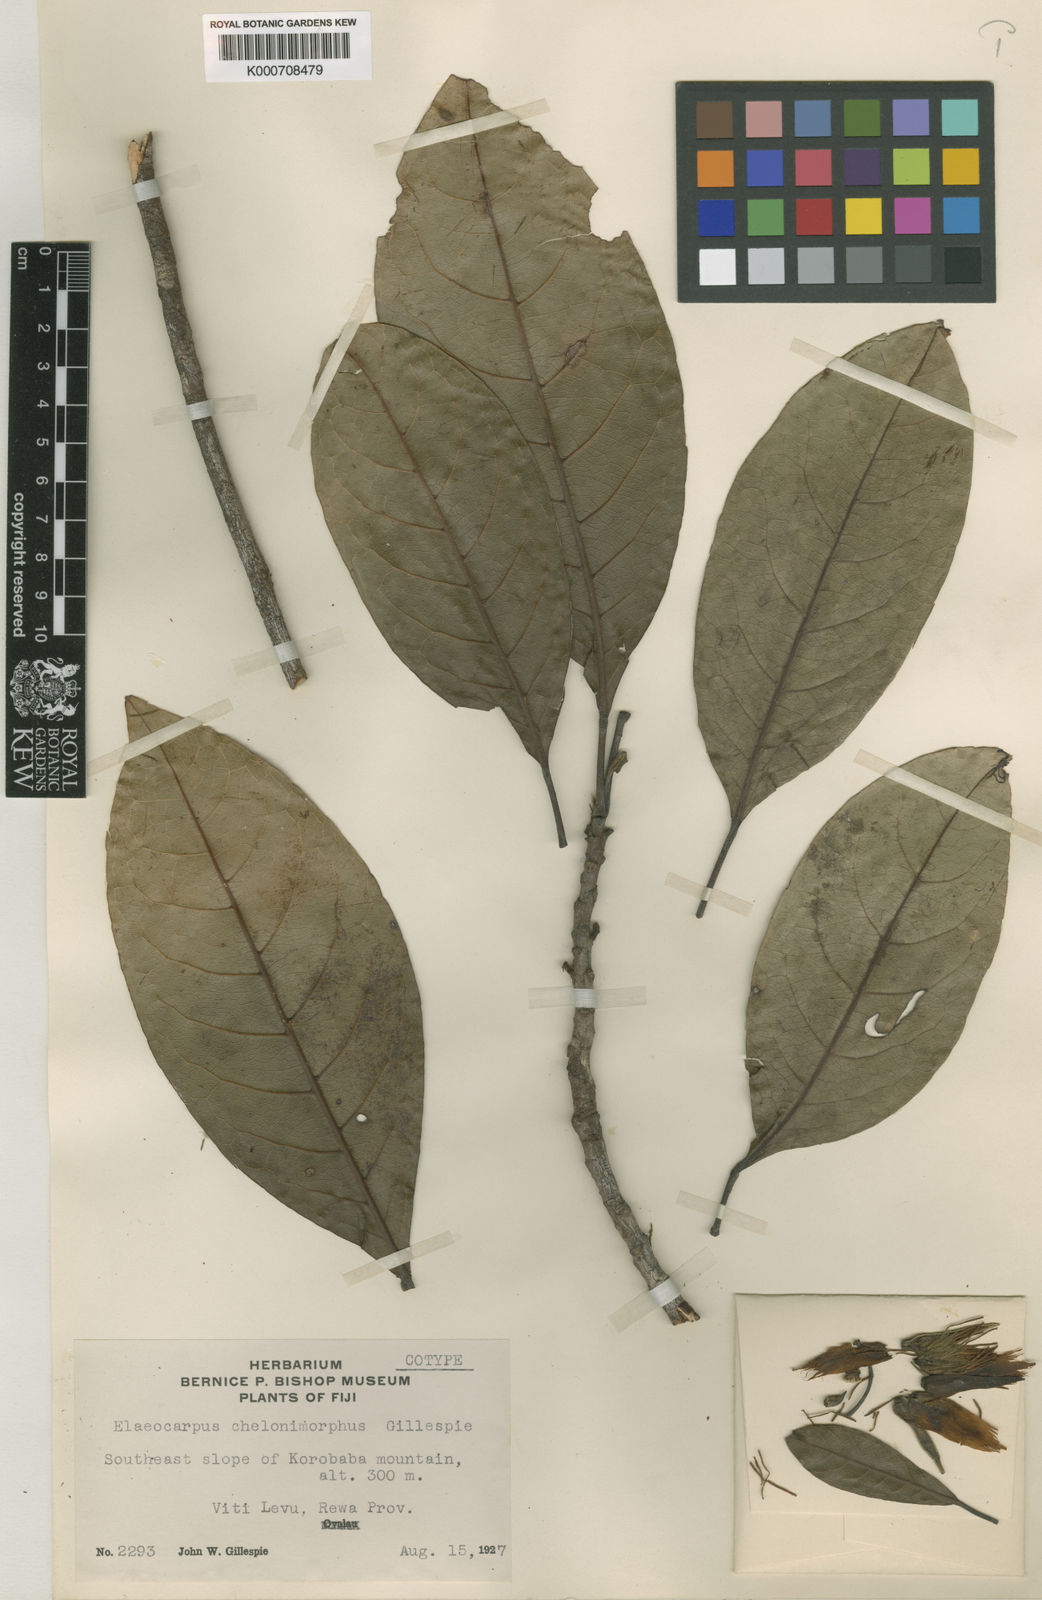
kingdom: Plantae
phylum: Tracheophyta
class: Magnoliopsida
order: Oxalidales
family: Elaeocarpaceae
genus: Elaeocarpus
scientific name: Elaeocarpus chelonimorphus
